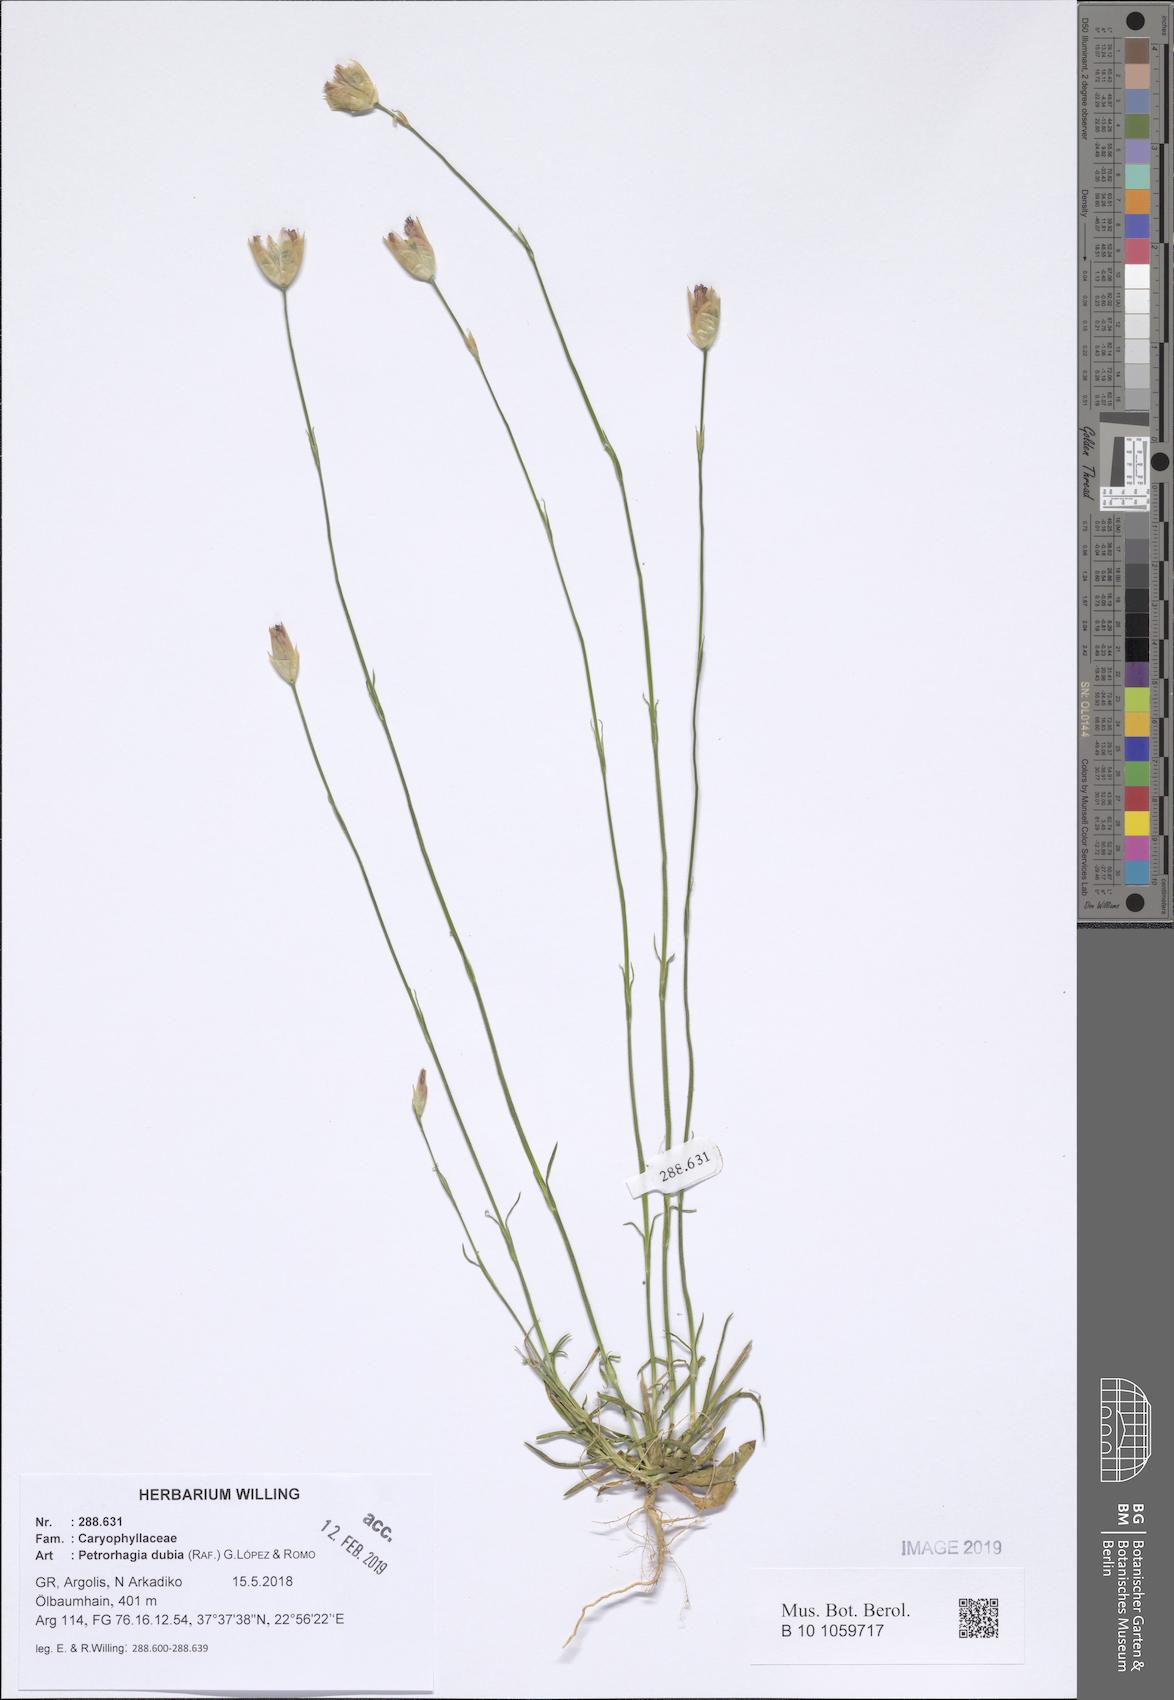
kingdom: Plantae
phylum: Tracheophyta
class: Magnoliopsida
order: Caryophyllales
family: Caryophyllaceae
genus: Petrorhagia
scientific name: Petrorhagia dubia
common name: Hairypink
